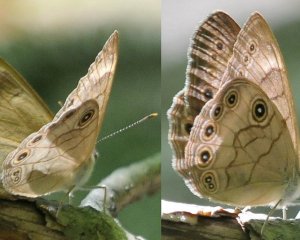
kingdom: Animalia
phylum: Arthropoda
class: Insecta
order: Lepidoptera
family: Nymphalidae
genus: Lethe
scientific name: Lethe eurydice
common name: Appalachian Eyed Brown
